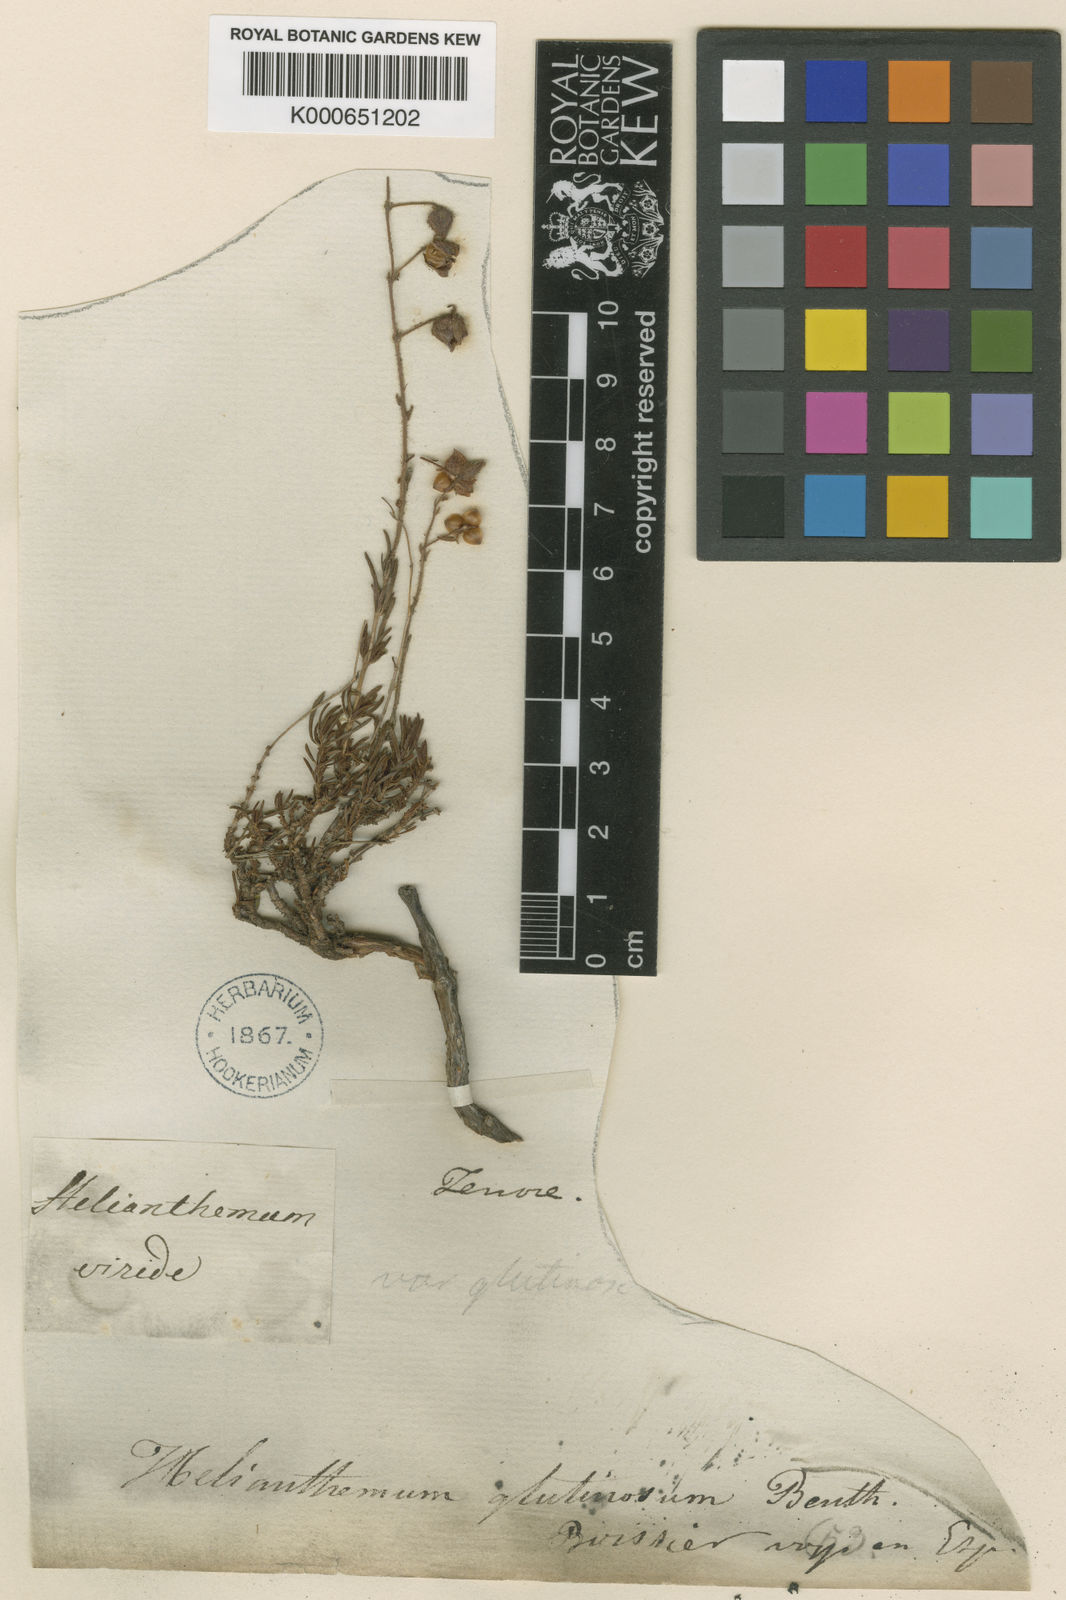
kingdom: Plantae
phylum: Tracheophyta
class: Magnoliopsida
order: Malvales
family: Cistaceae
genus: Fumana
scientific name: Fumana thymifolia
